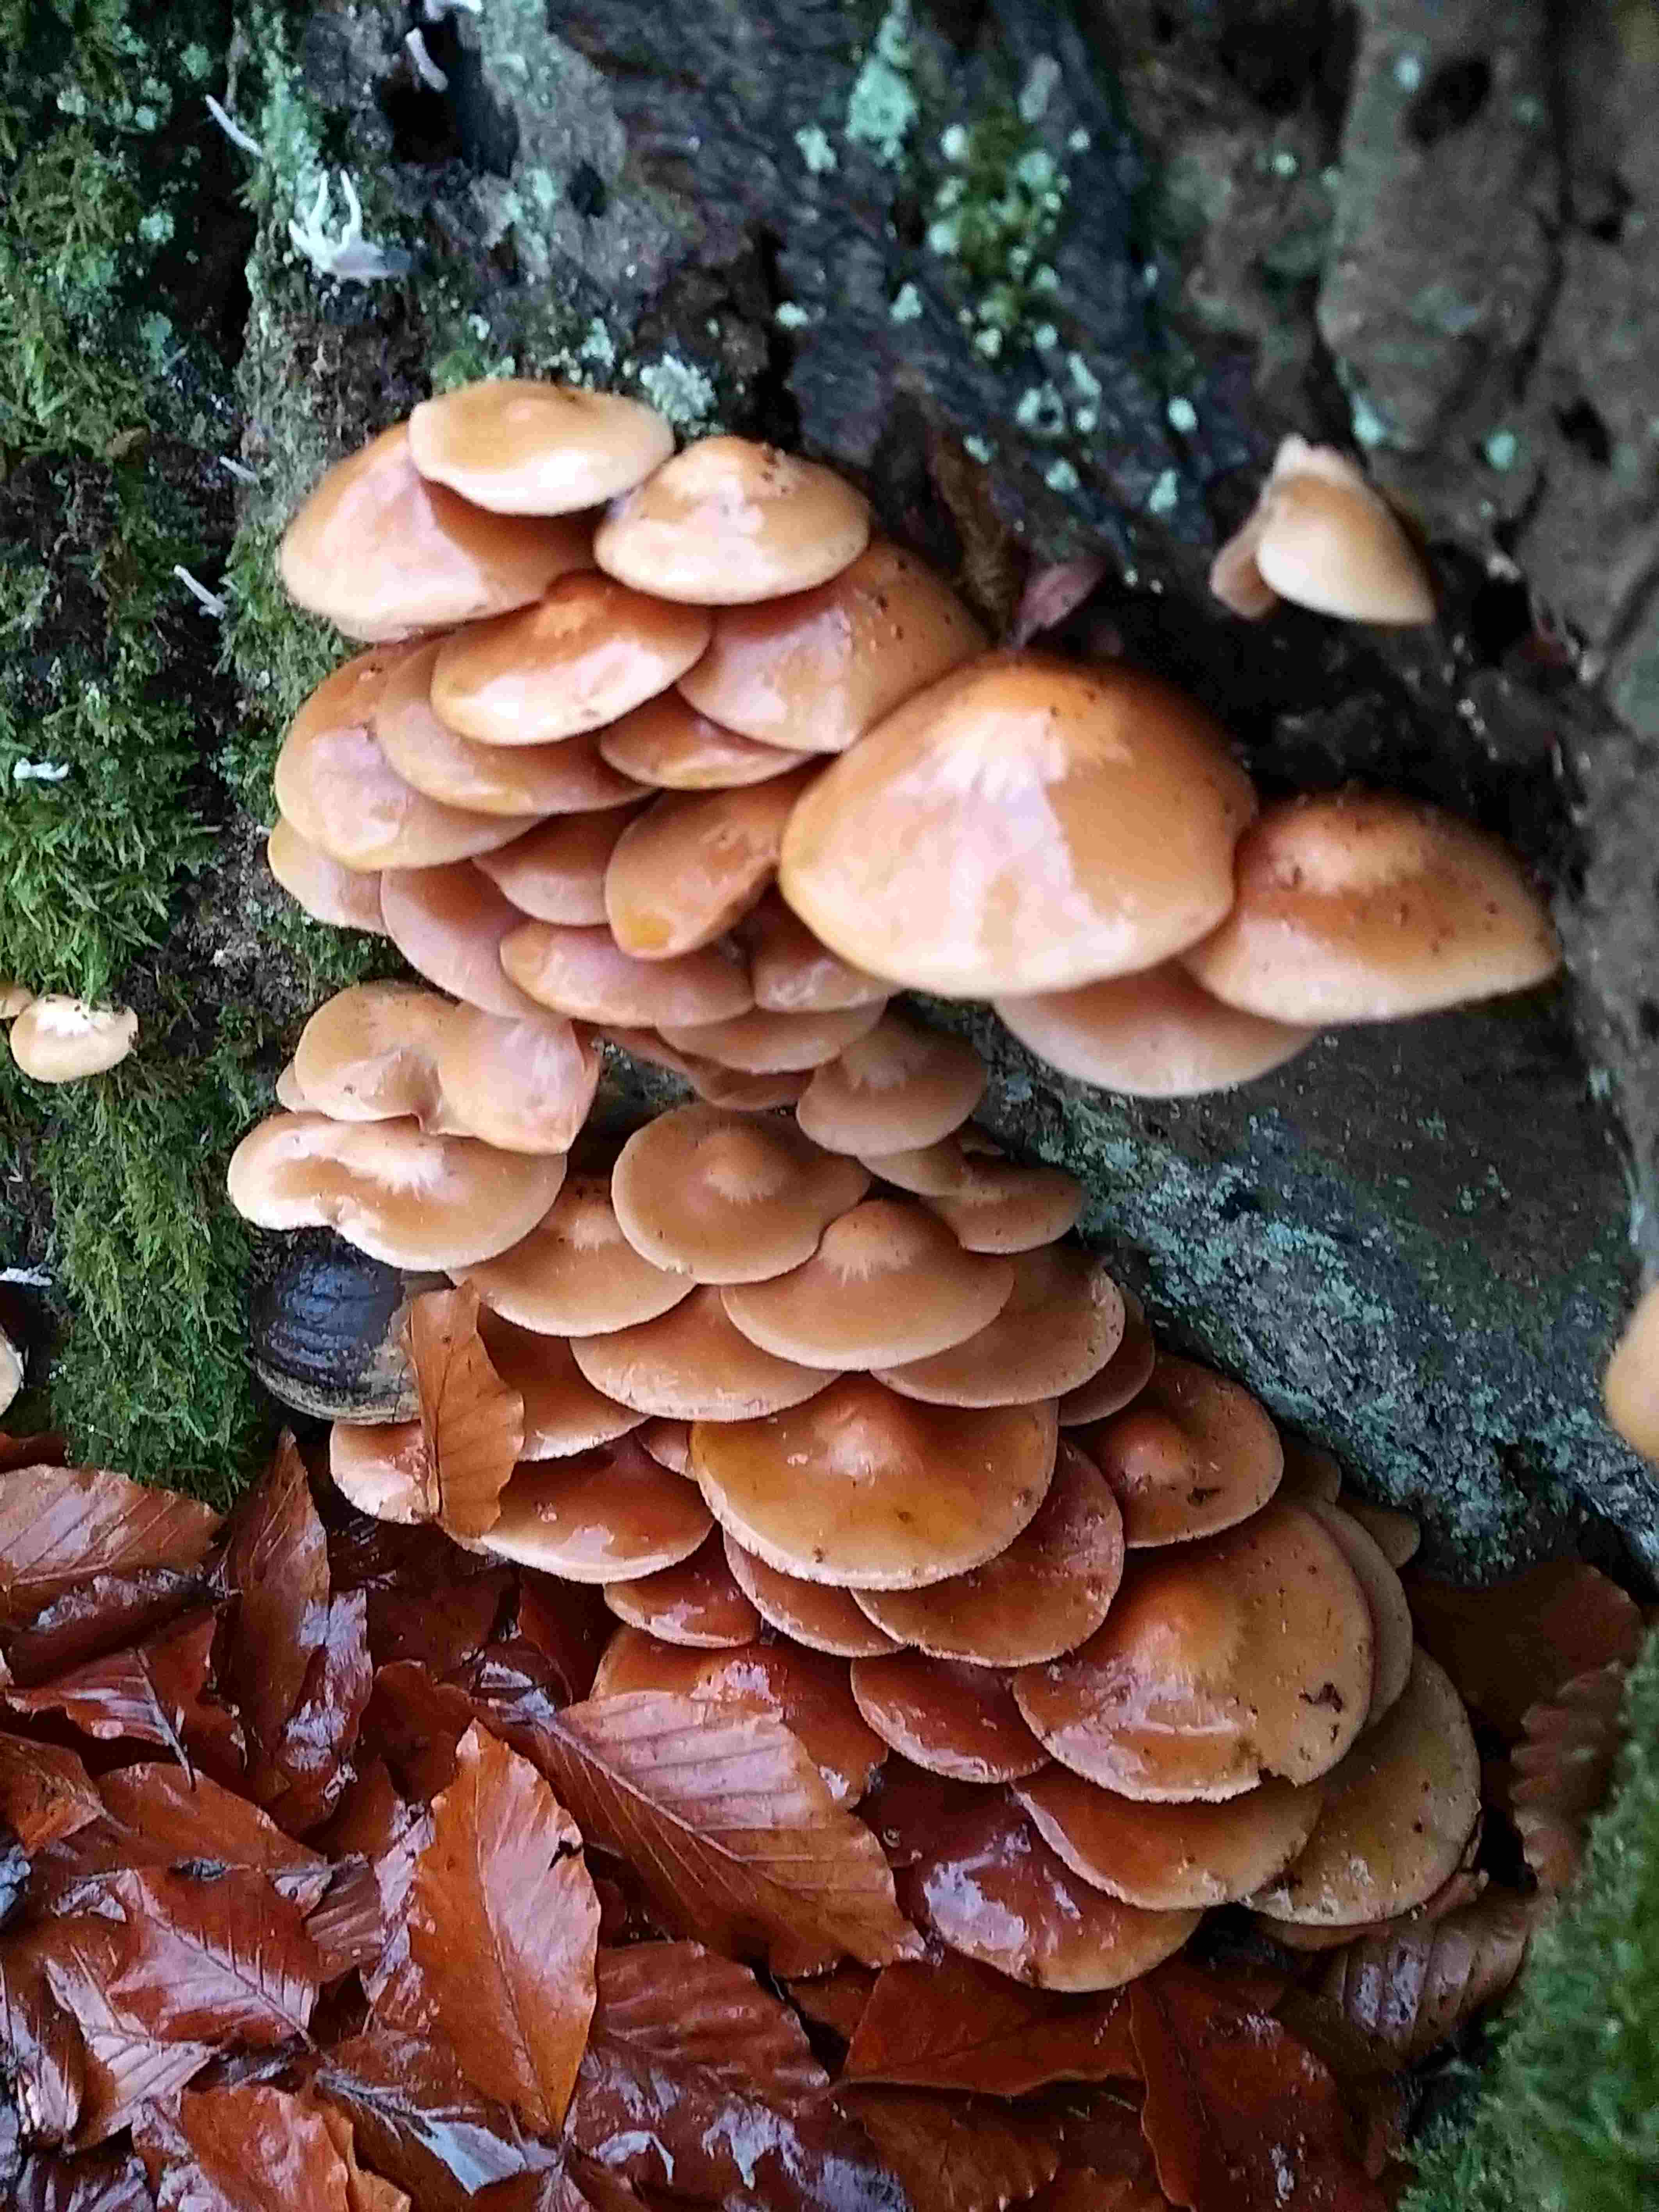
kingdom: Fungi
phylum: Basidiomycota
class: Agaricomycetes
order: Agaricales
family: Strophariaceae
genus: Kuehneromyces
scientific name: Kuehneromyces mutabilis
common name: foranderlig skælhat
